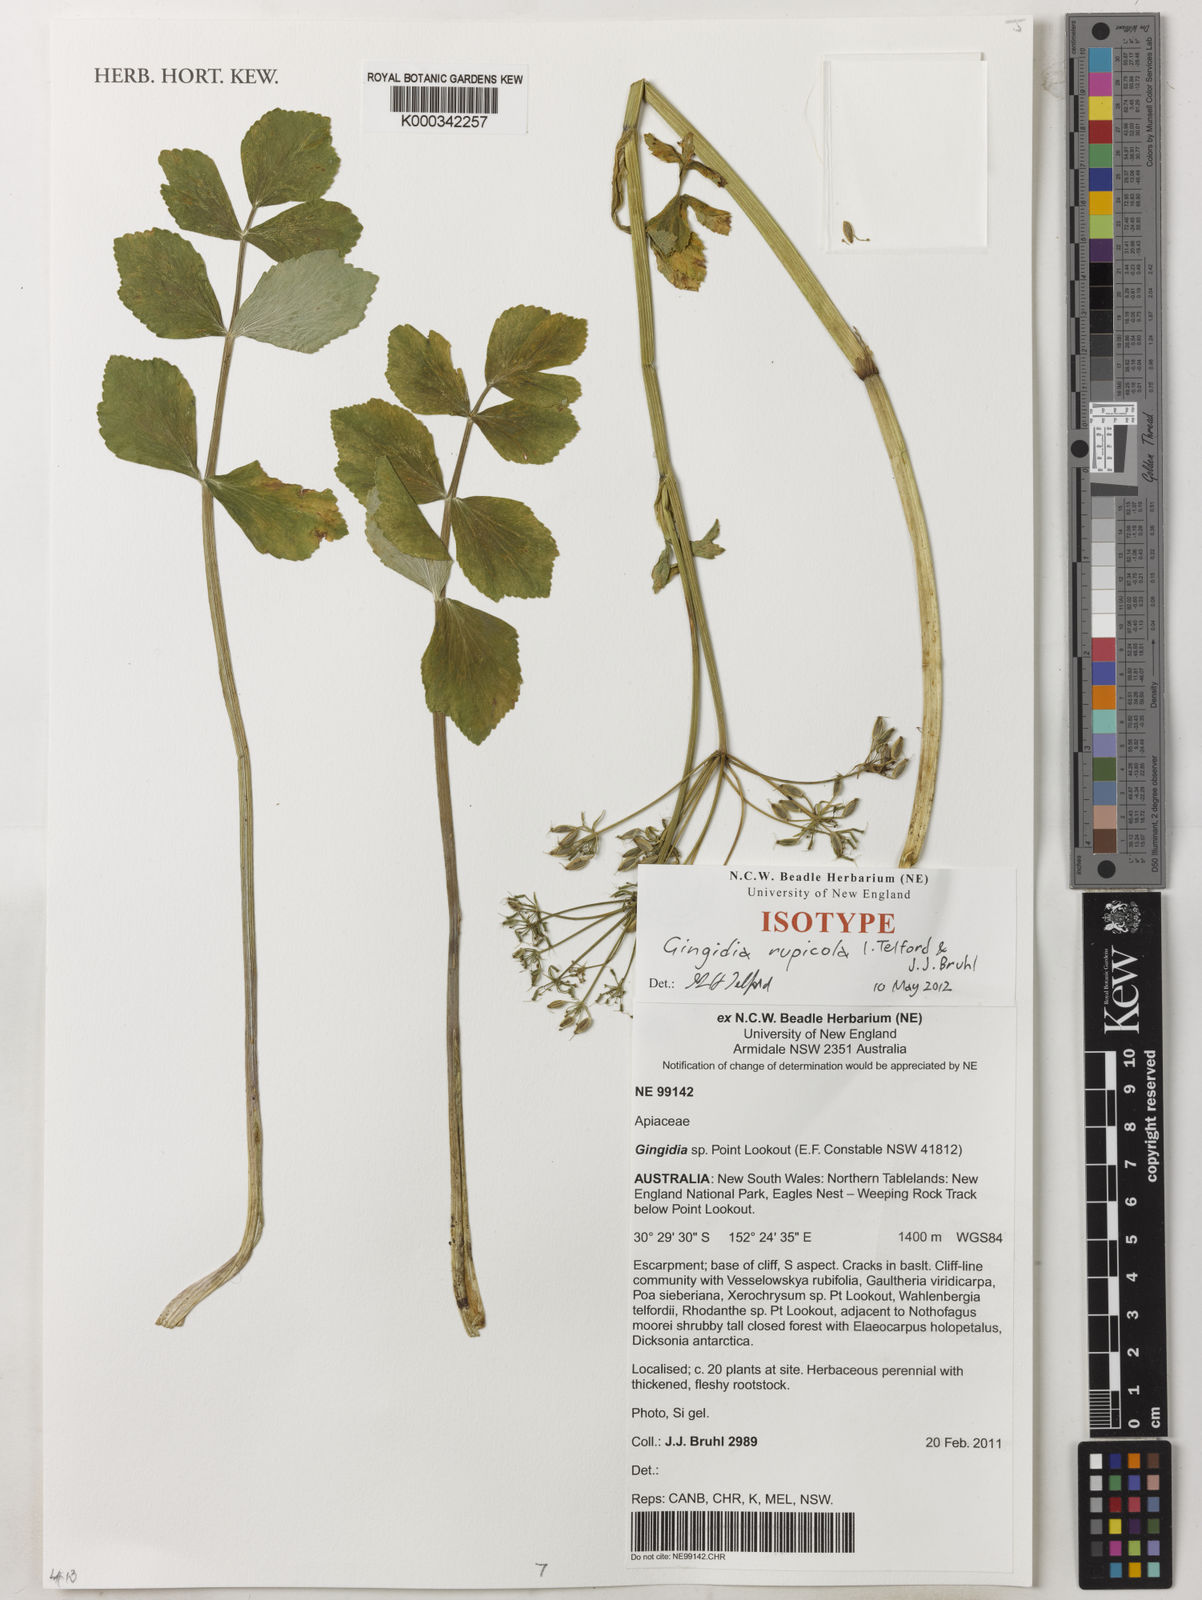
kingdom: Plantae
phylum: Tracheophyta
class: Magnoliopsida
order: Apiales
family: Apiaceae
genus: Gingidia
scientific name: Gingidia rupicola
